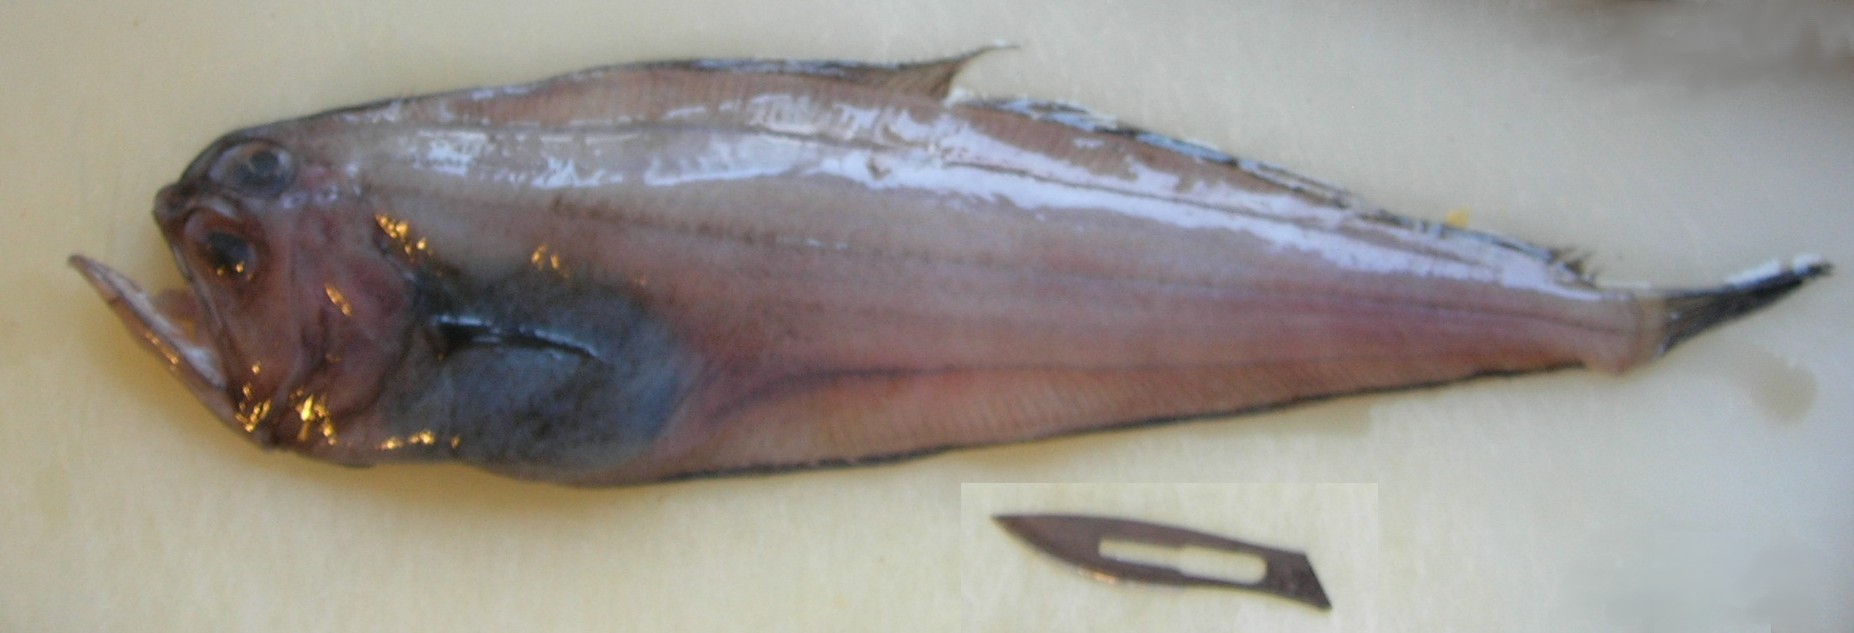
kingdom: Animalia
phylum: Chordata
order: Pleuronectiformes
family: Bothidae
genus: Chascanopsetta
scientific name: Chascanopsetta lugubris
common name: Pelican flounder
